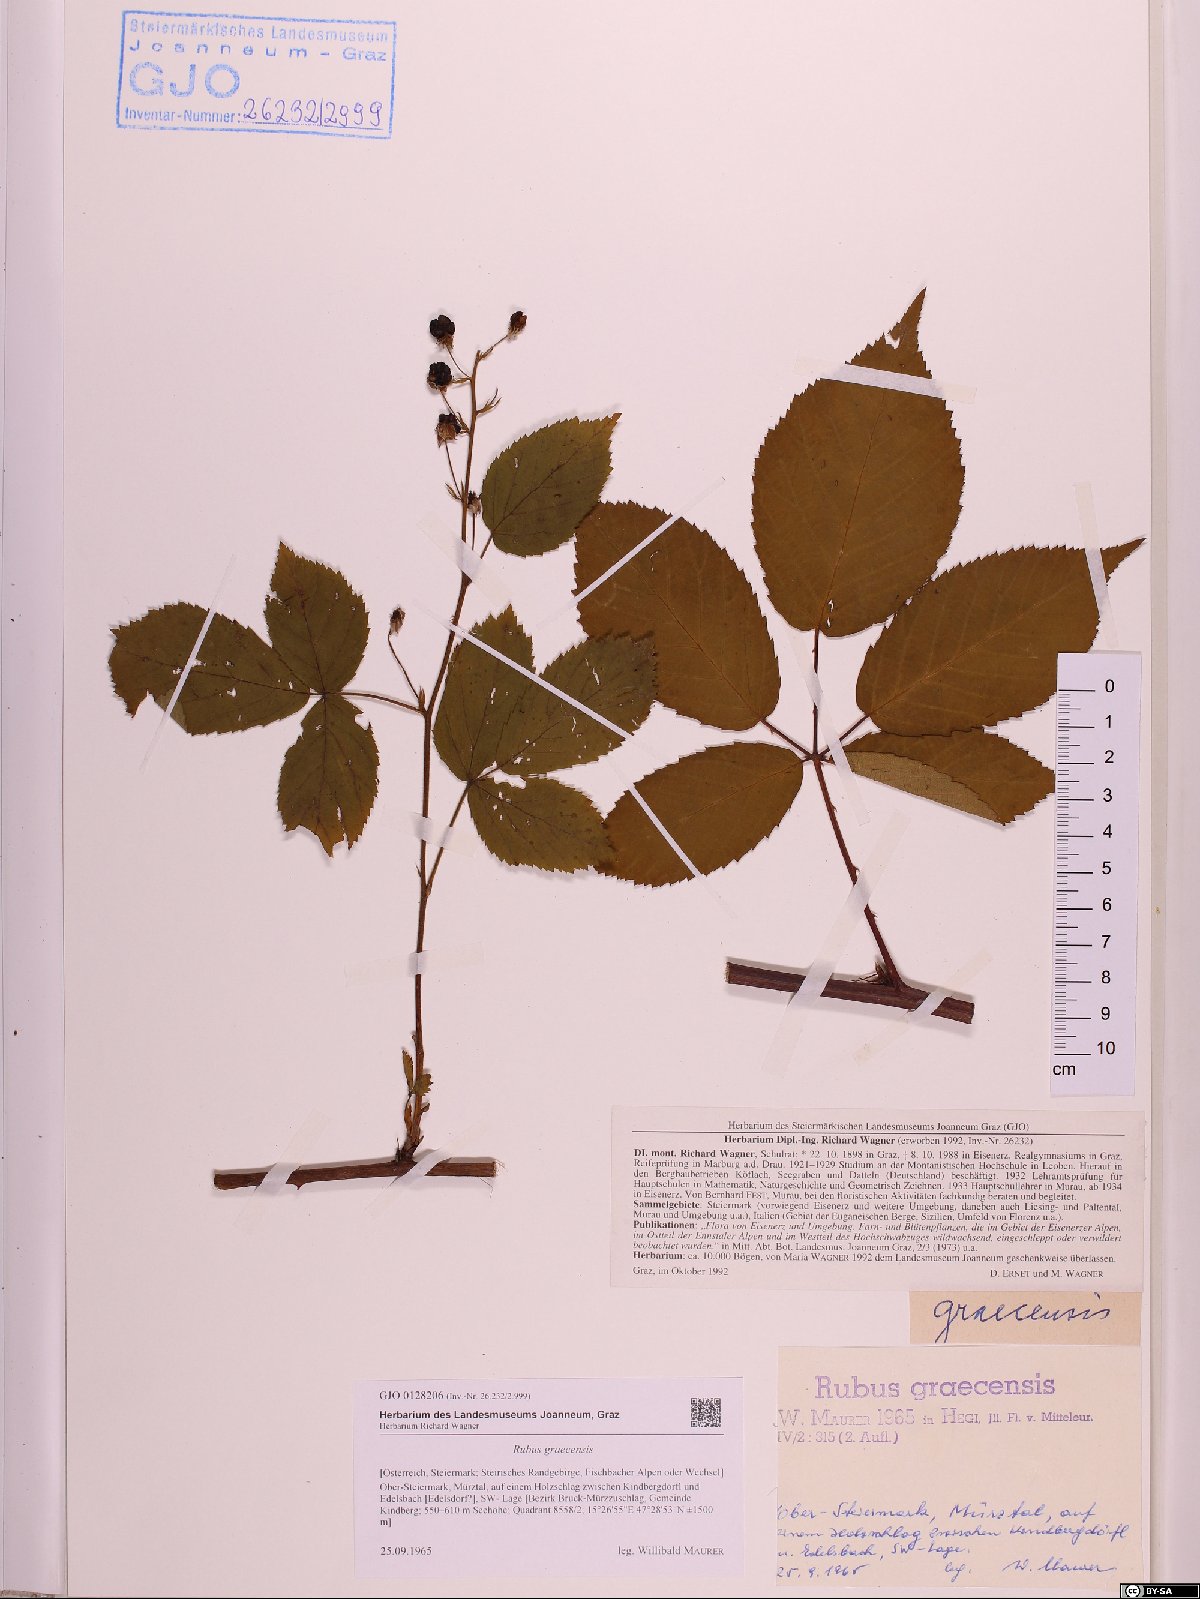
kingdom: Plantae
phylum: Tracheophyta
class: Magnoliopsida
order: Rosales
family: Rosaceae
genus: Rubus
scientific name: Rubus graecensis
